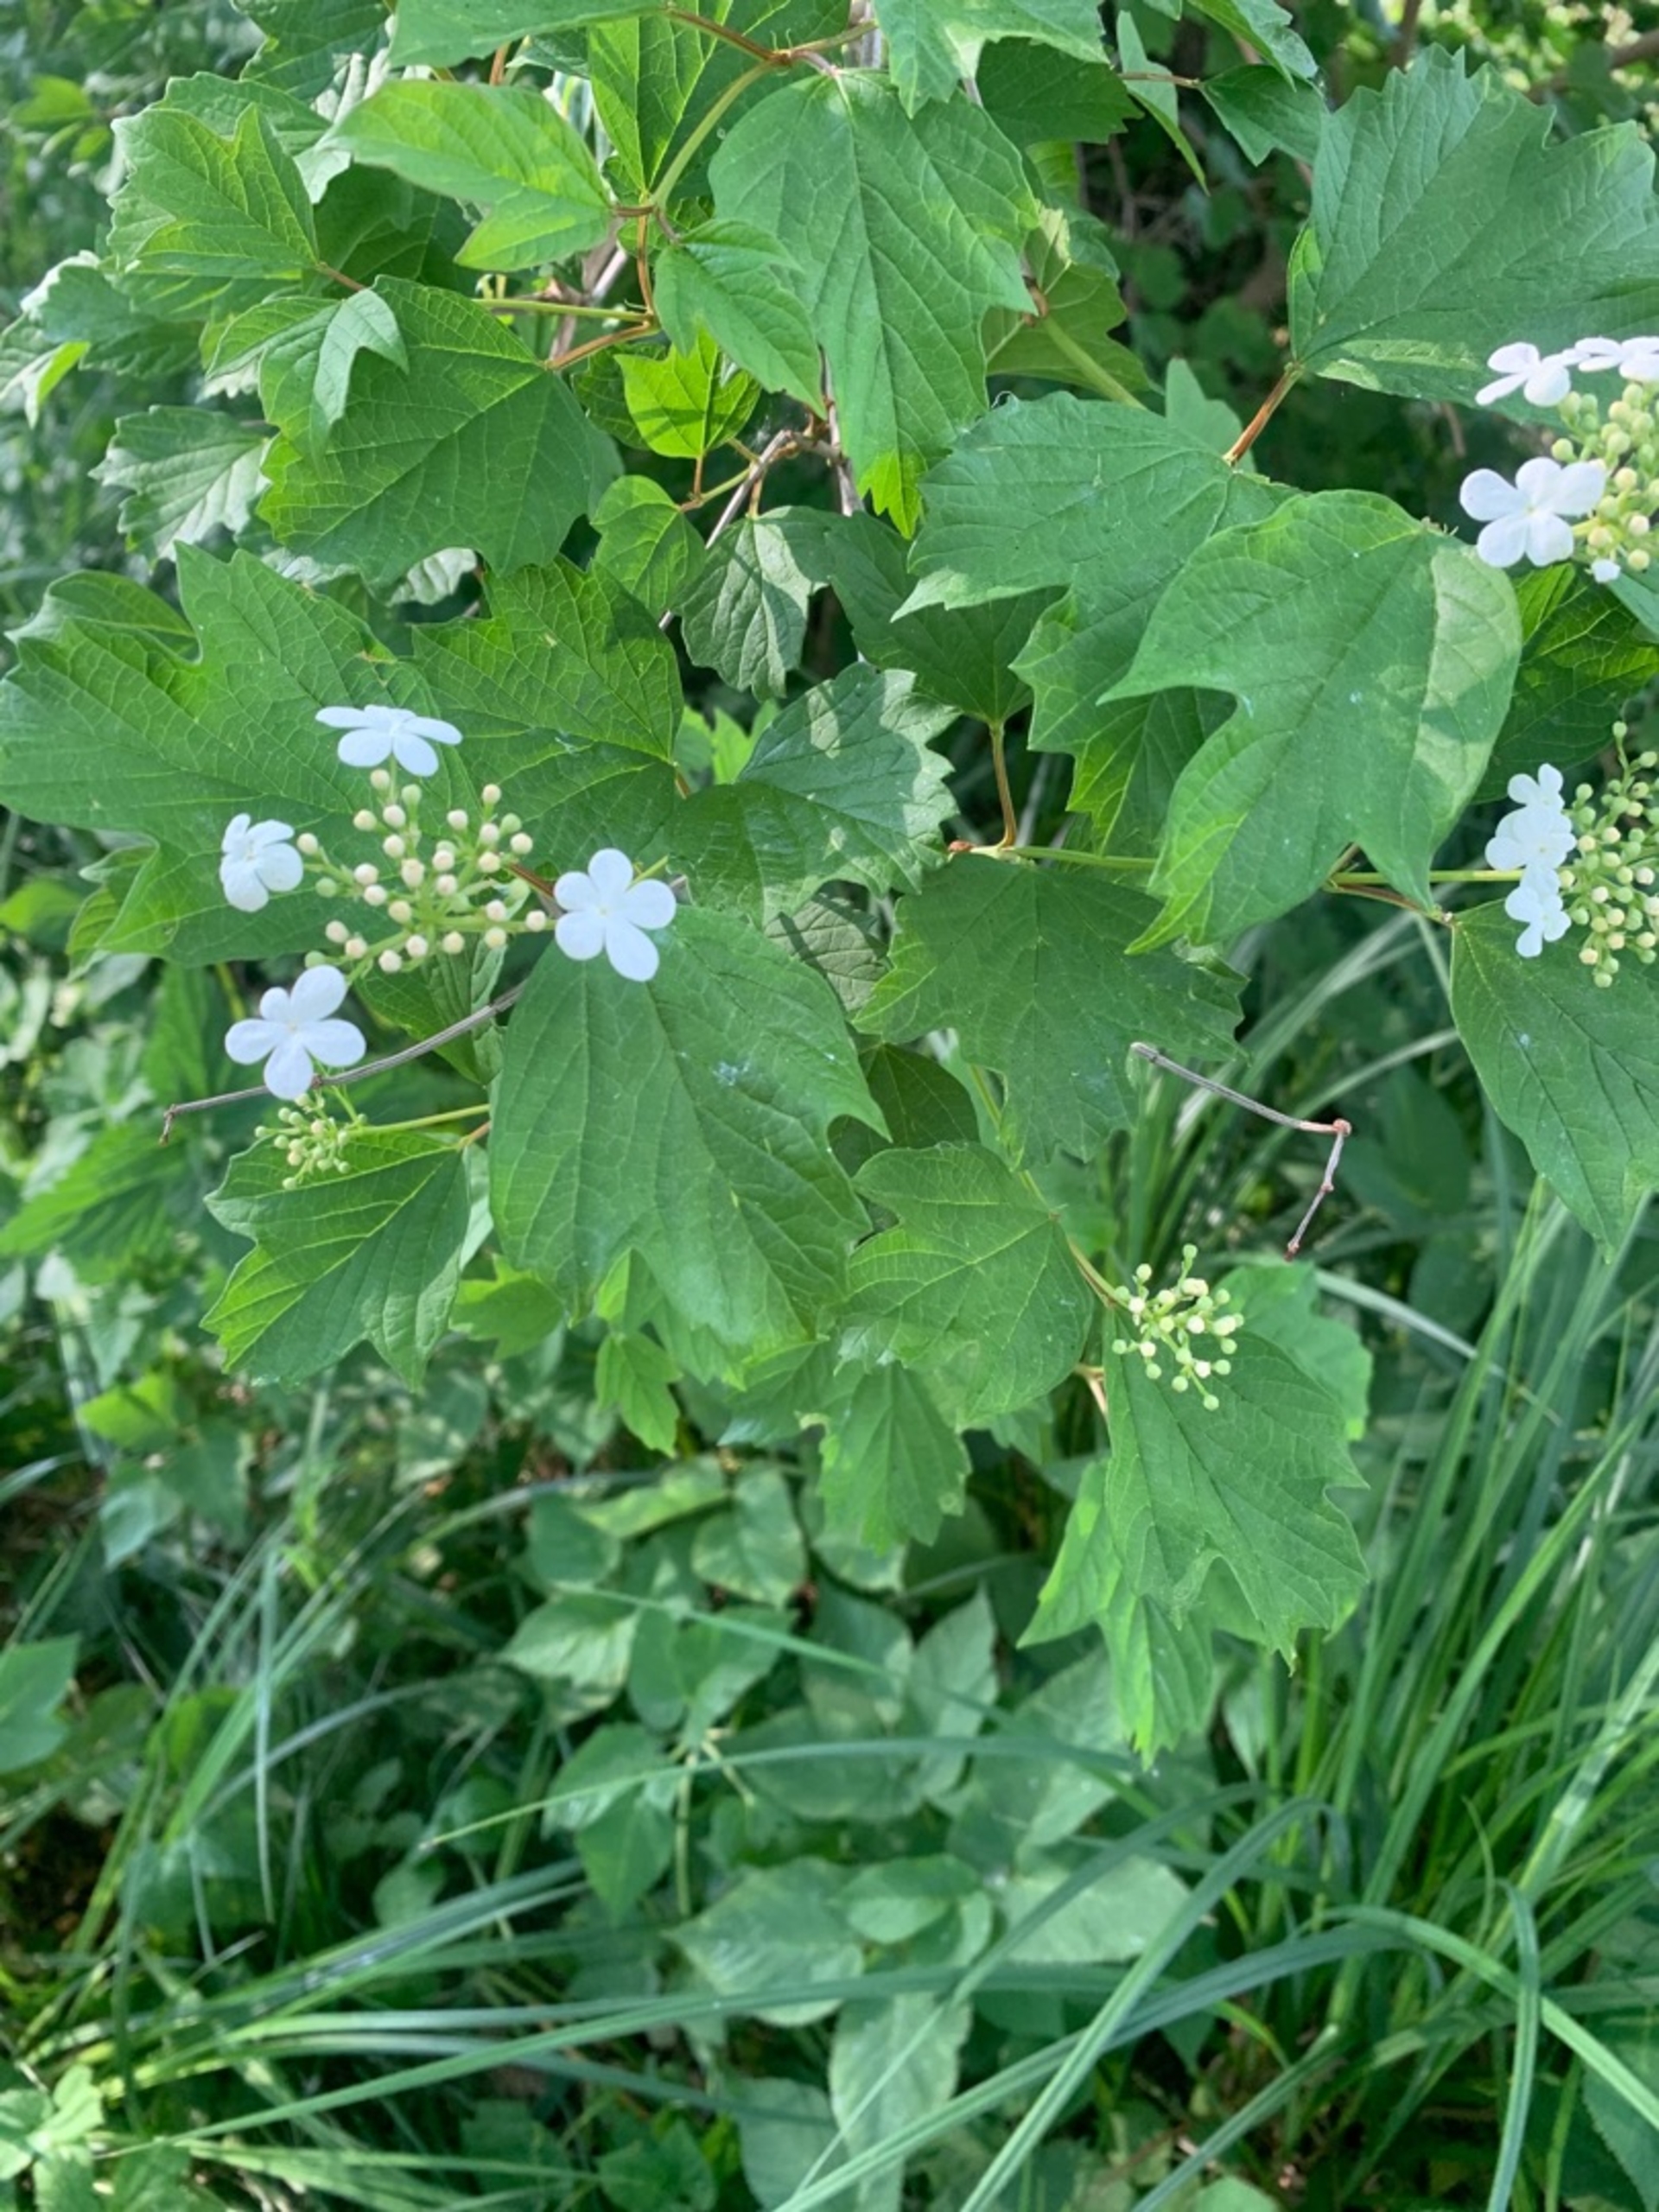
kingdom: Plantae
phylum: Tracheophyta
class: Magnoliopsida
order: Dipsacales
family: Viburnaceae
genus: Viburnum
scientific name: Viburnum opulus
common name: Kvalkved
